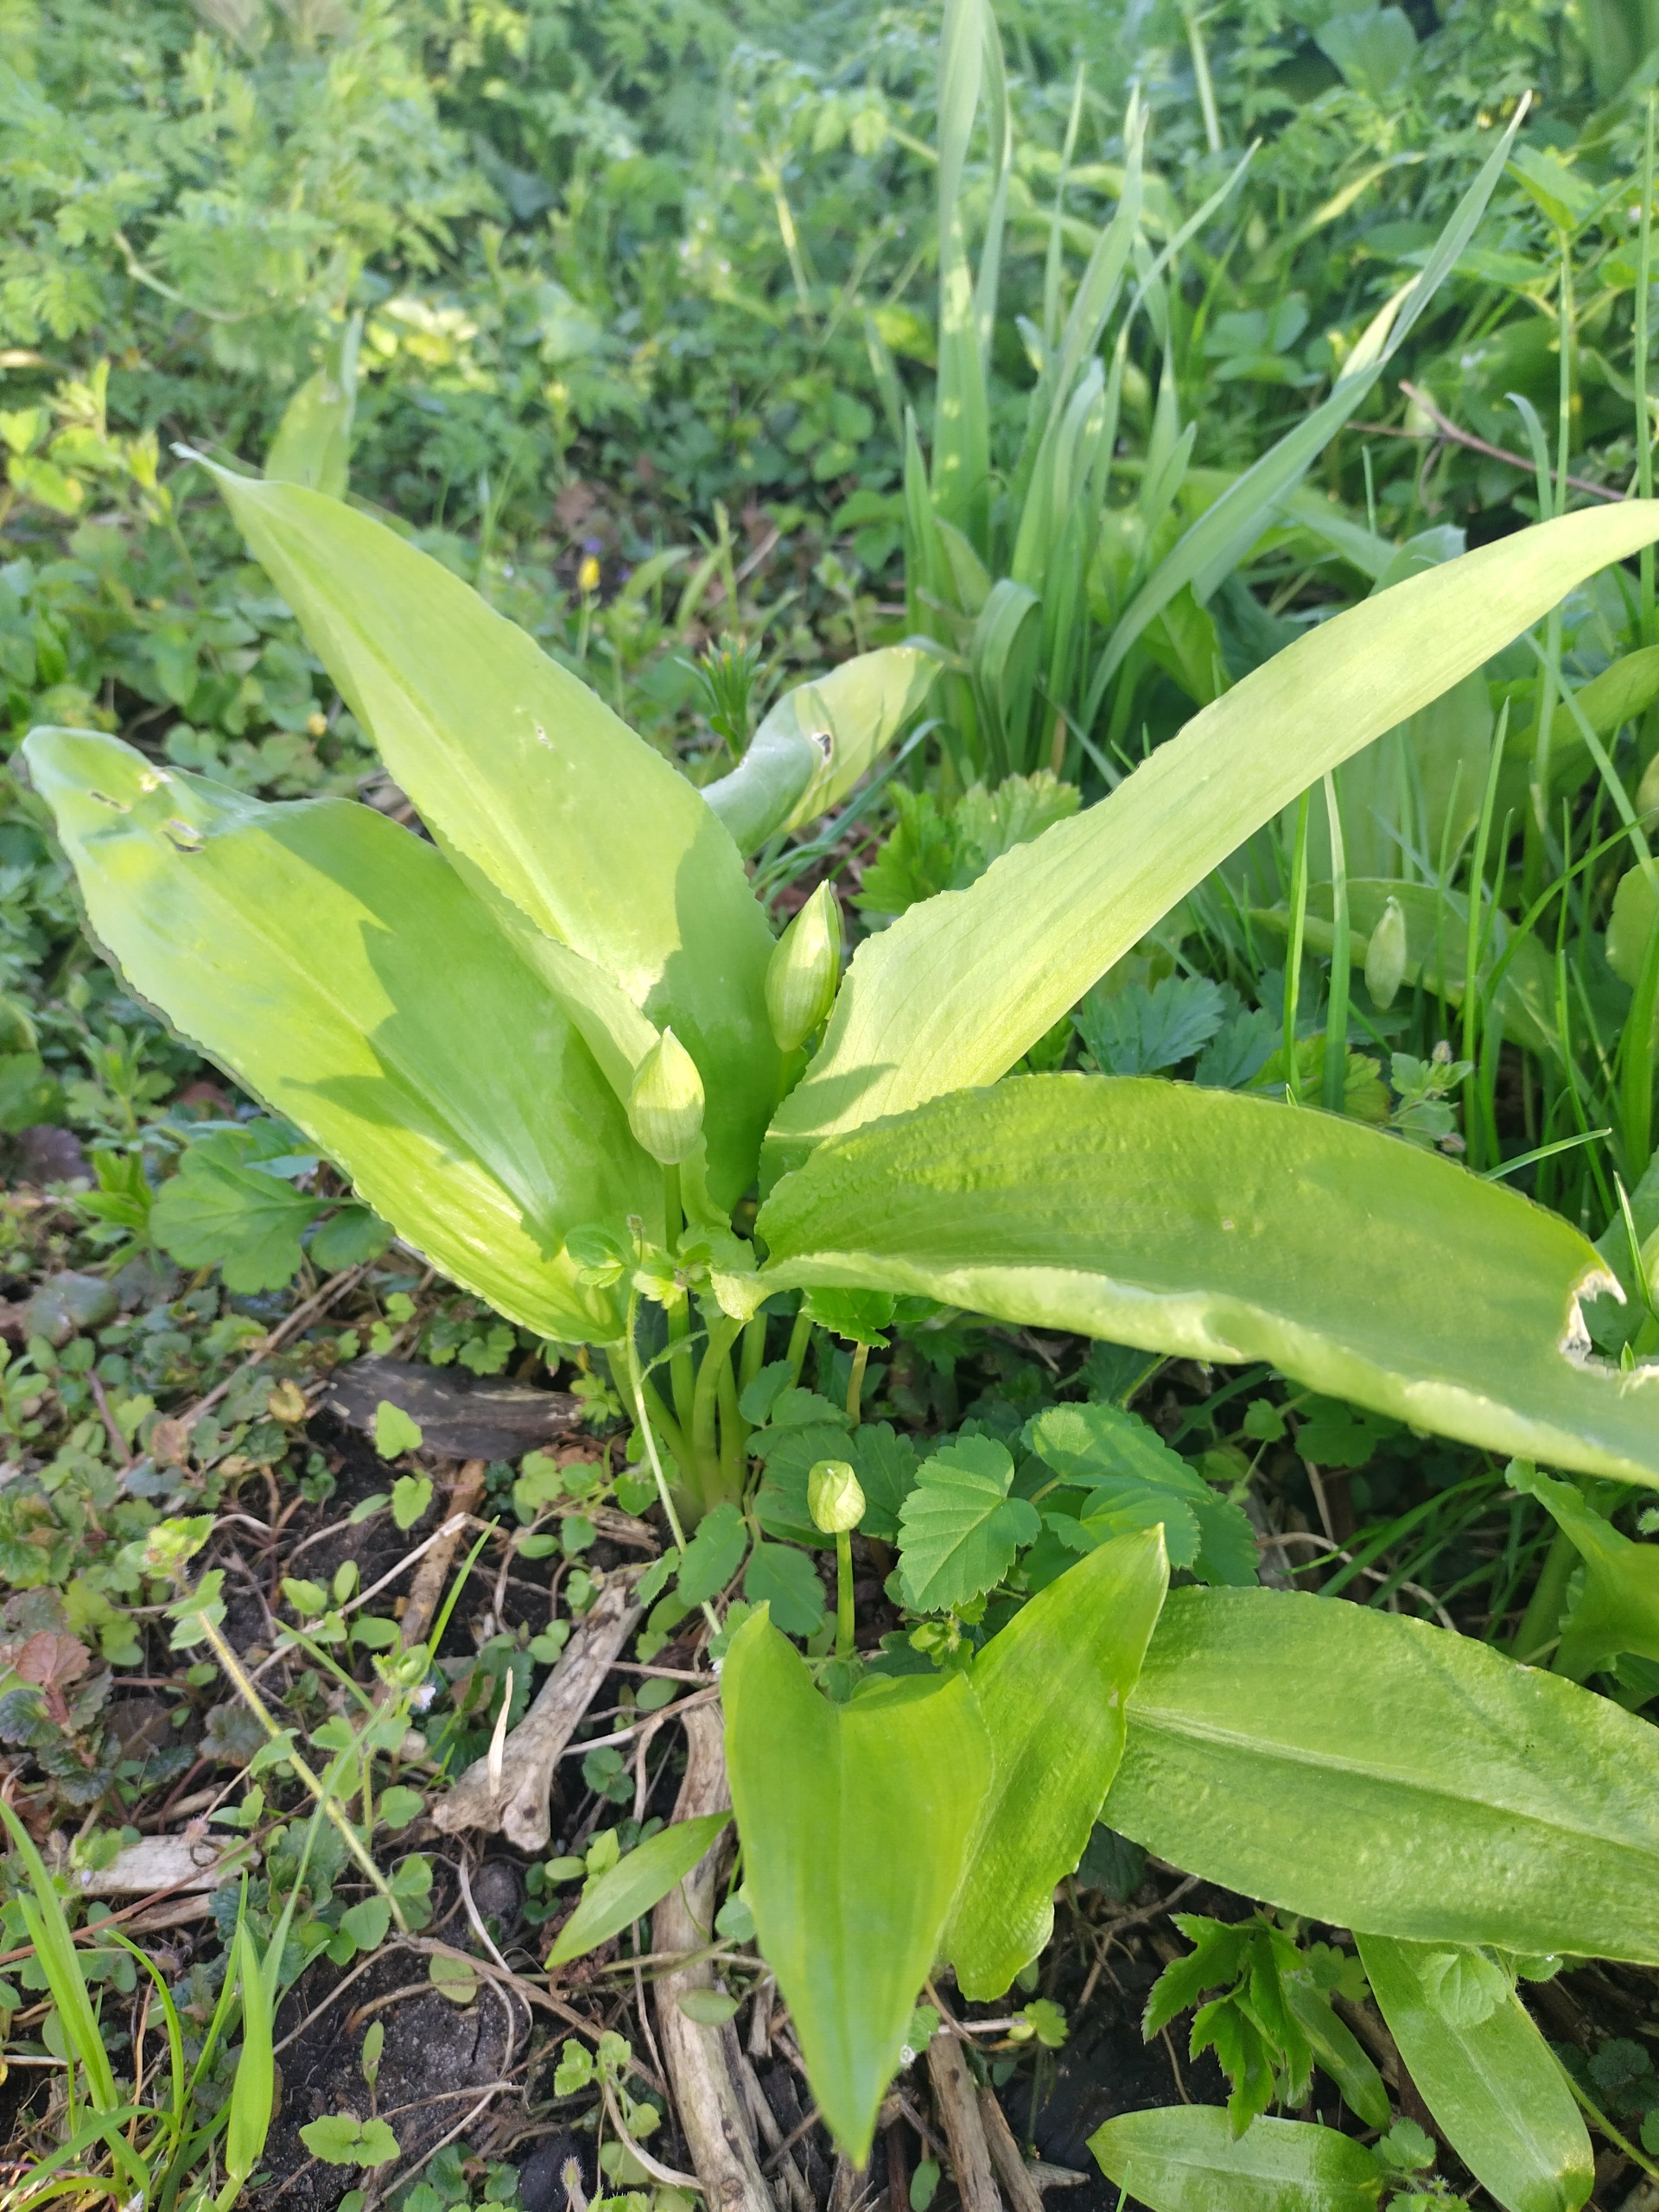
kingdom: Plantae
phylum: Tracheophyta
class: Liliopsida
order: Asparagales
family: Amaryllidaceae
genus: Allium
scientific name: Allium ursinum
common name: Rams-løg
